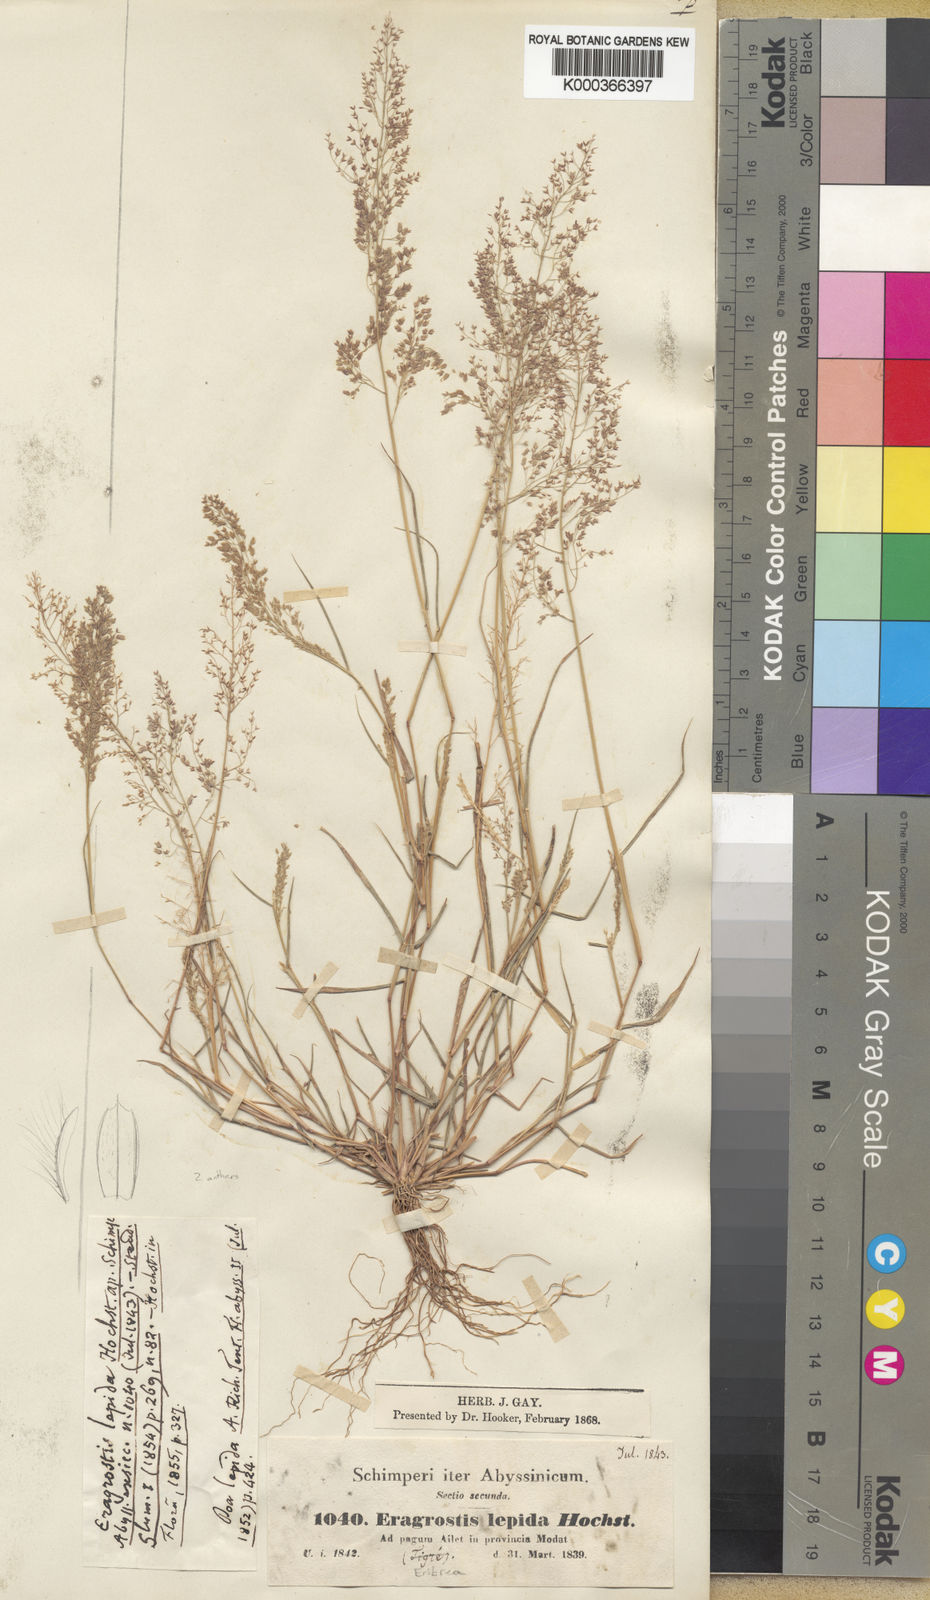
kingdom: Plantae
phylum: Tracheophyta
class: Liliopsida
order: Poales
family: Poaceae
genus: Eragrostis
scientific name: Eragrostis lepida
